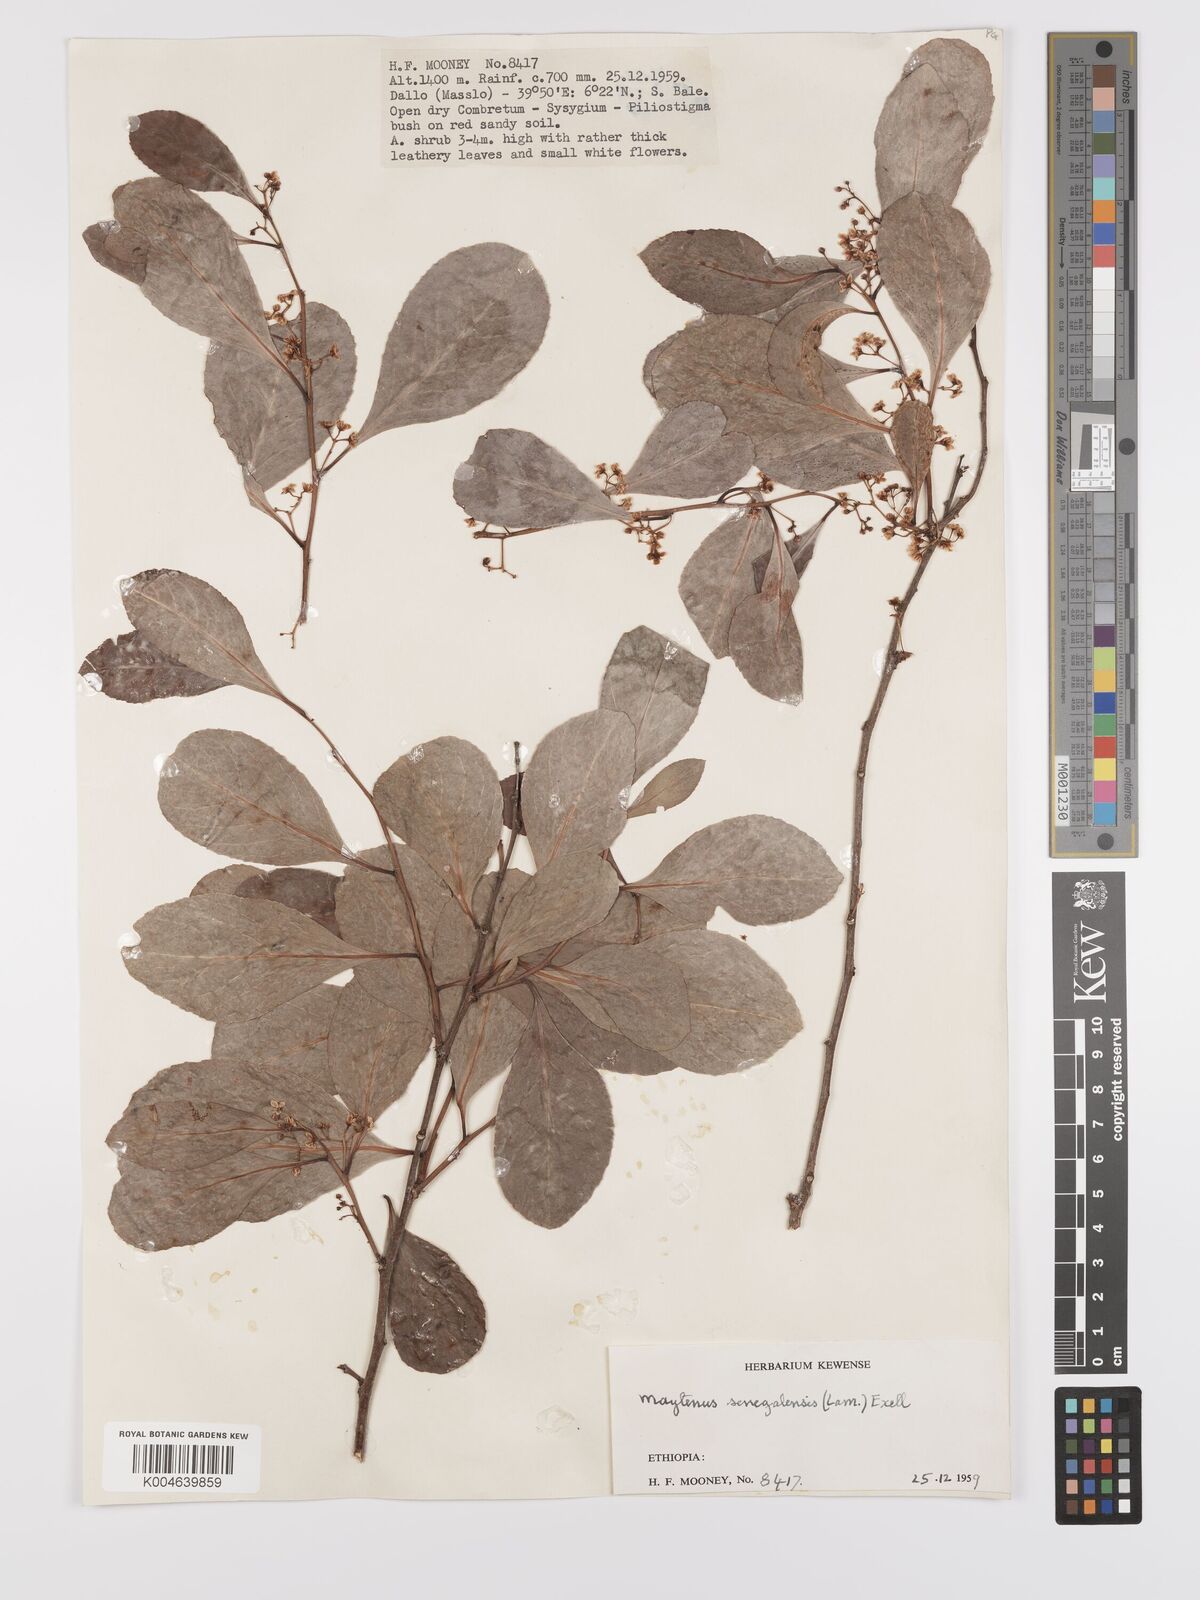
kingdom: Plantae
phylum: Tracheophyta
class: Magnoliopsida
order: Celastrales
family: Celastraceae
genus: Gymnosporia
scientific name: Gymnosporia senegalensis
